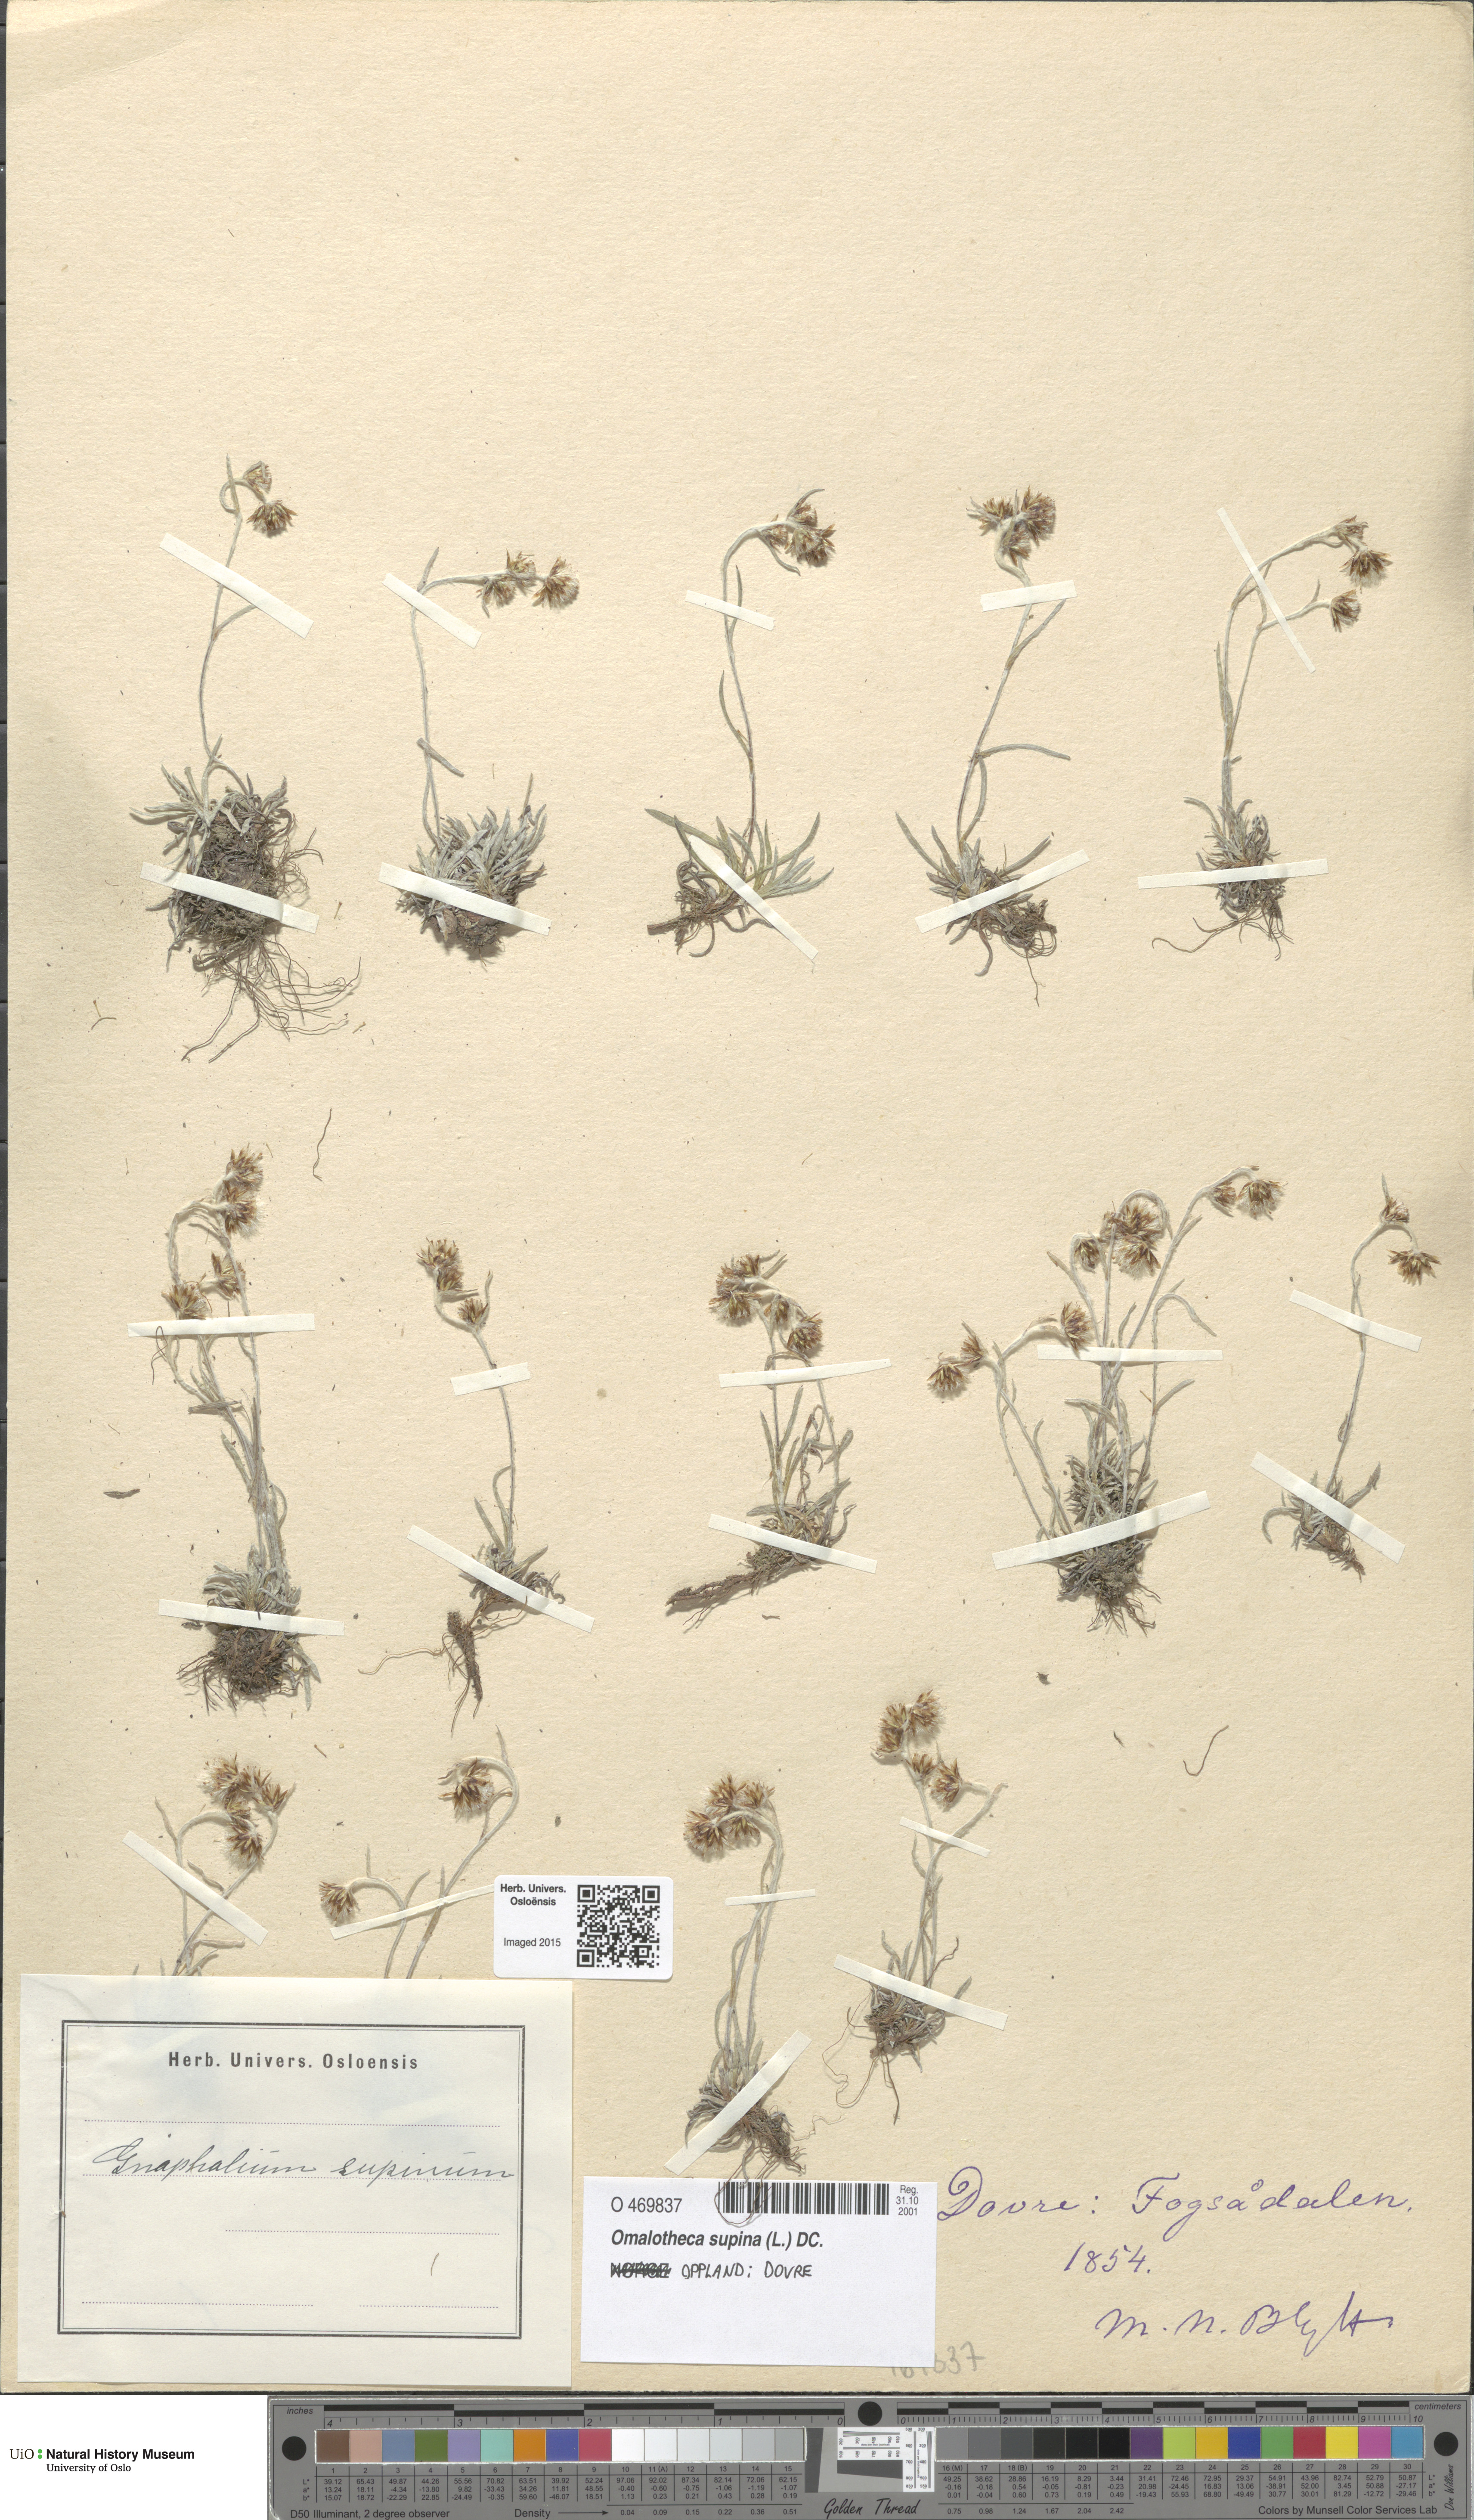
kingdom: Plantae
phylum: Tracheophyta
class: Magnoliopsida
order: Asterales
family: Asteraceae
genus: Omalotheca
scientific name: Omalotheca supina
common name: Alpine arctic-cudweed
